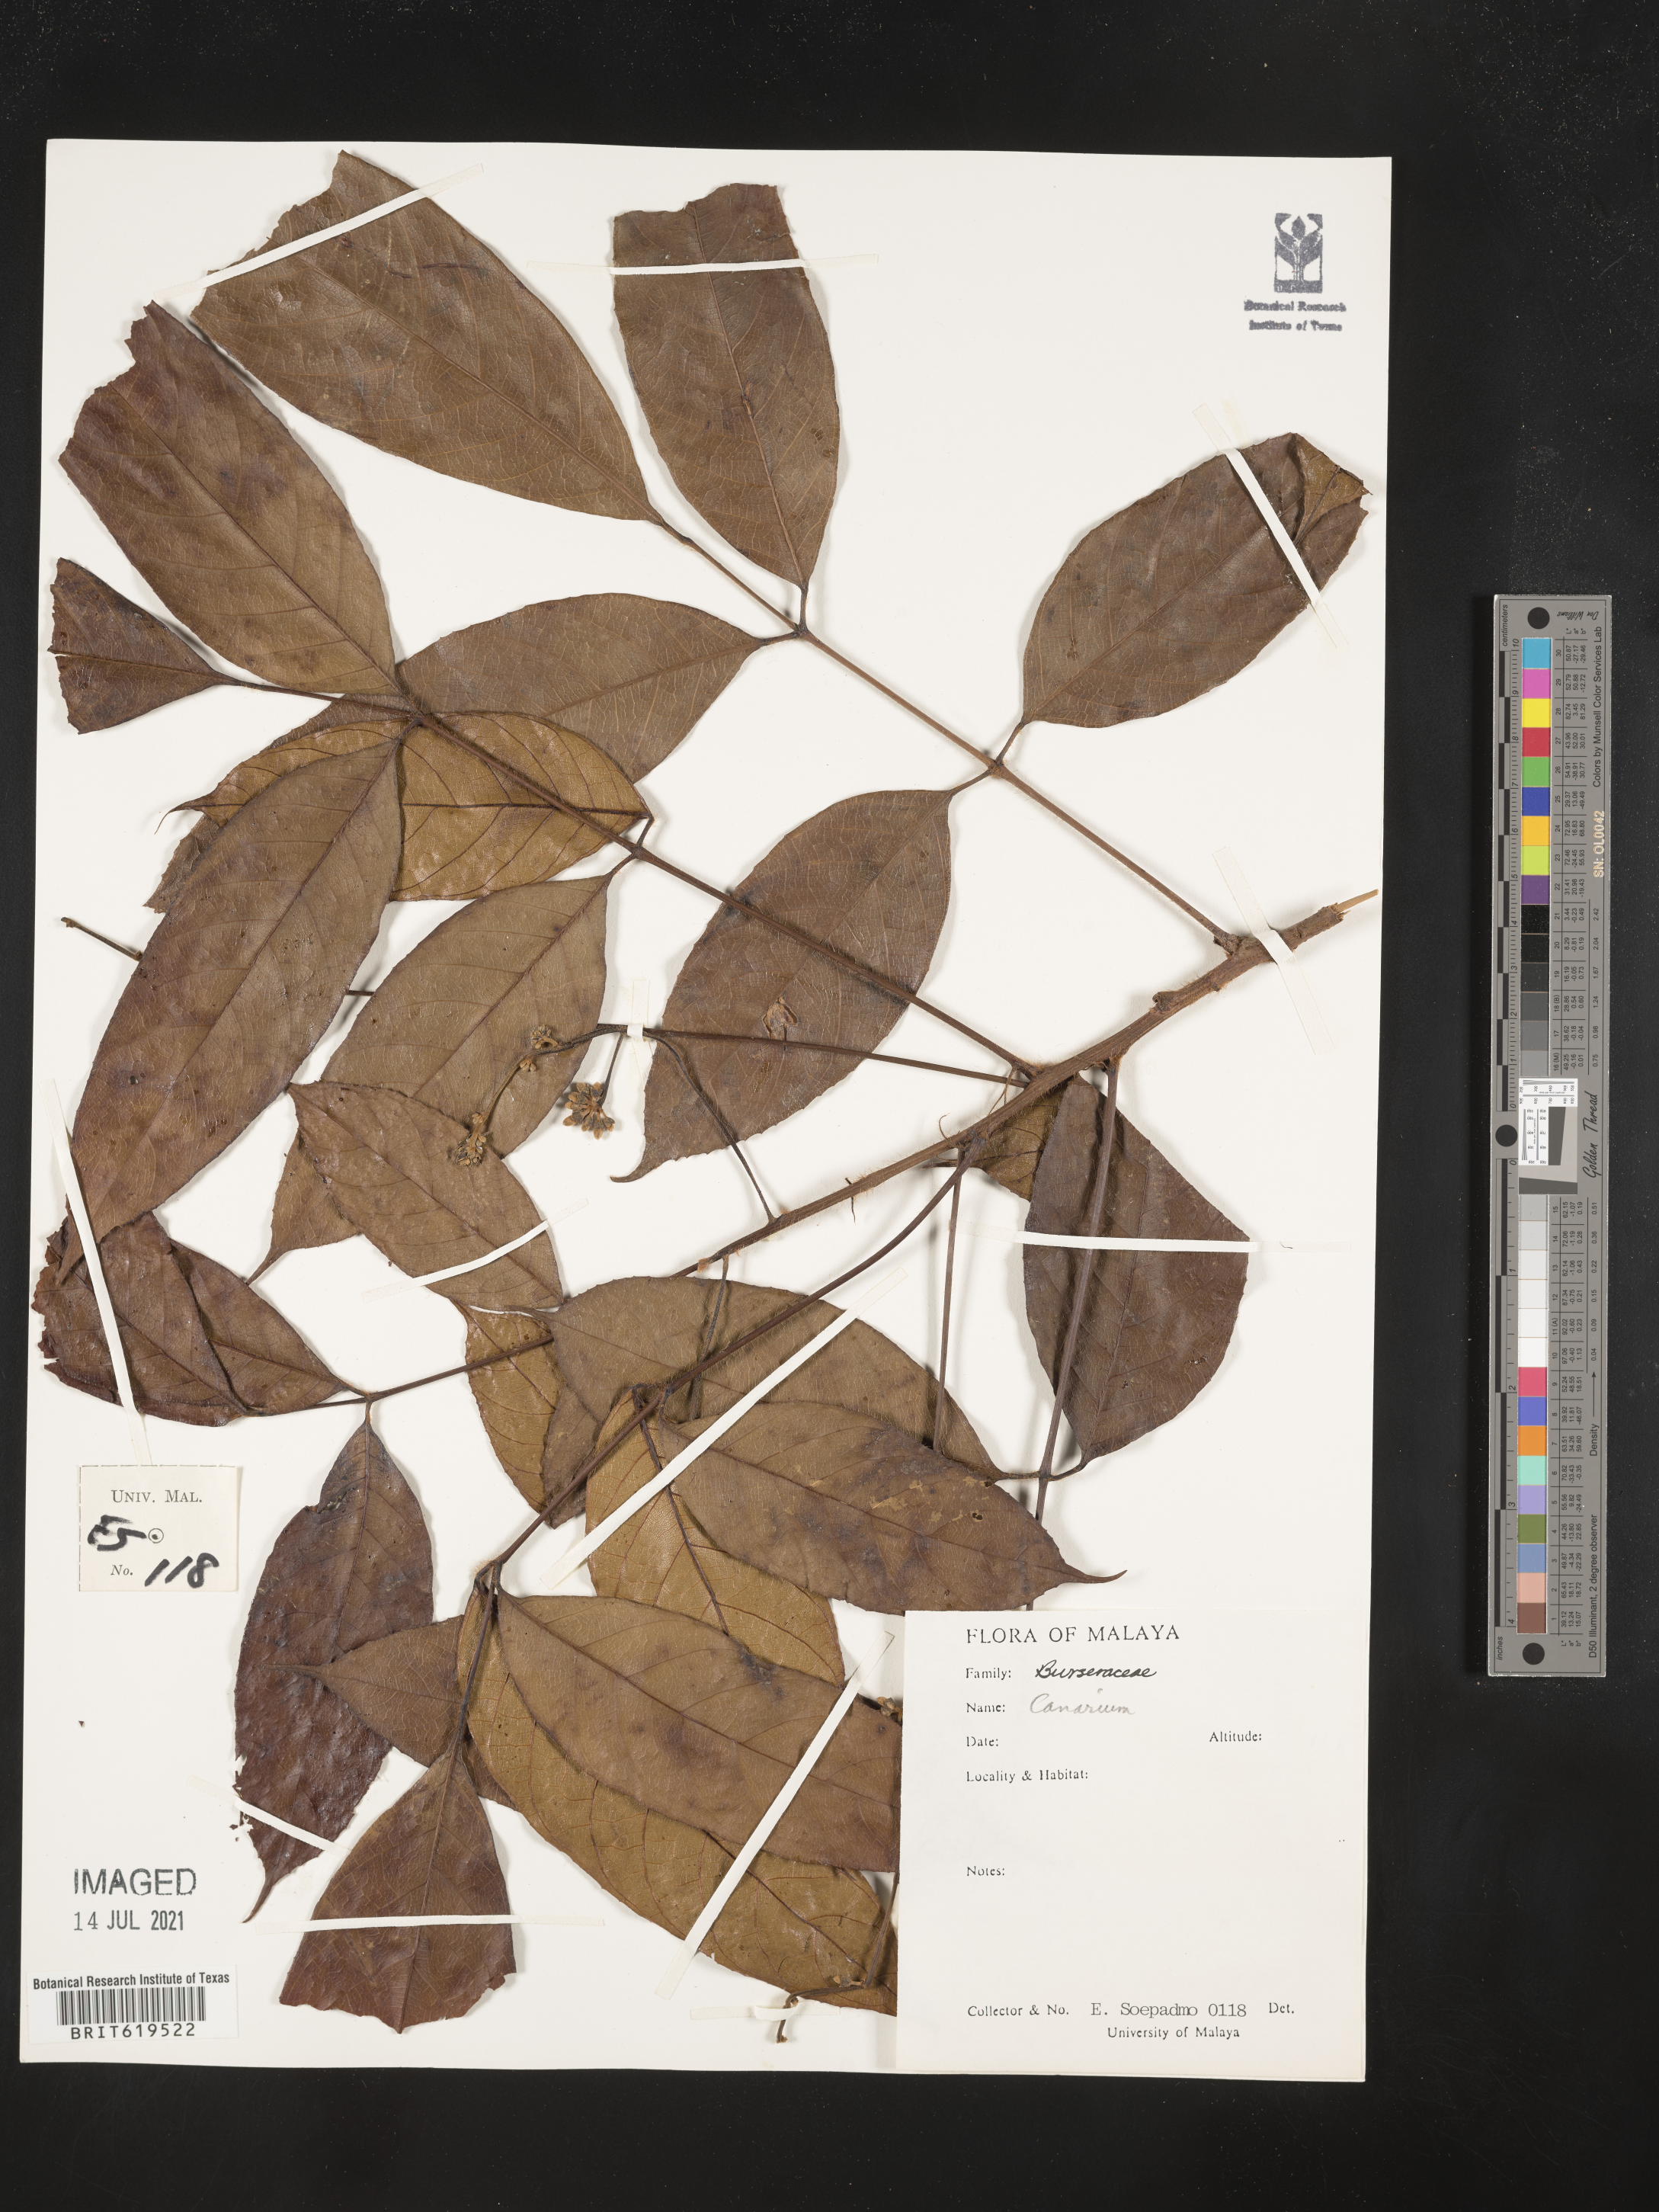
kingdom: Plantae
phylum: Tracheophyta
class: Magnoliopsida
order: Sapindales
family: Burseraceae
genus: Canarium
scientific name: Canarium
